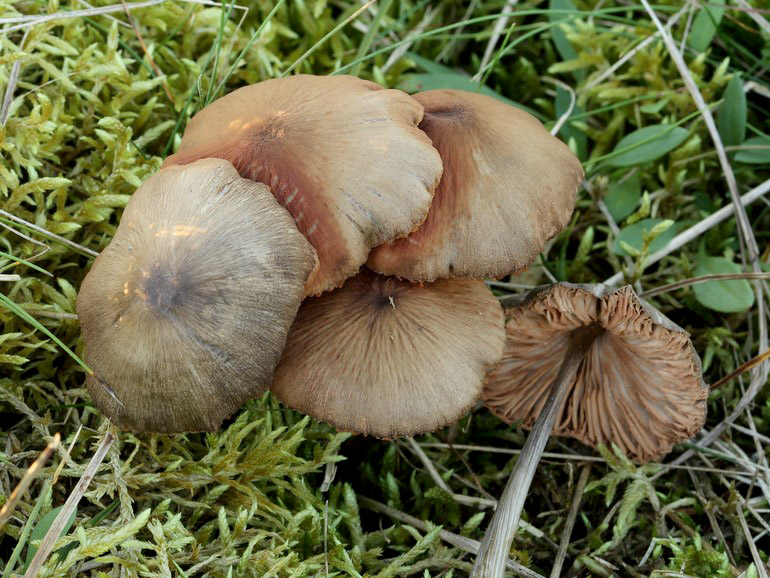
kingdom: Fungi
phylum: Basidiomycota
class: Agaricomycetes
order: Agaricales
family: Entolomataceae
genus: Entoloma
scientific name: Entoloma conferendum
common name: stjernesporet rødblad
